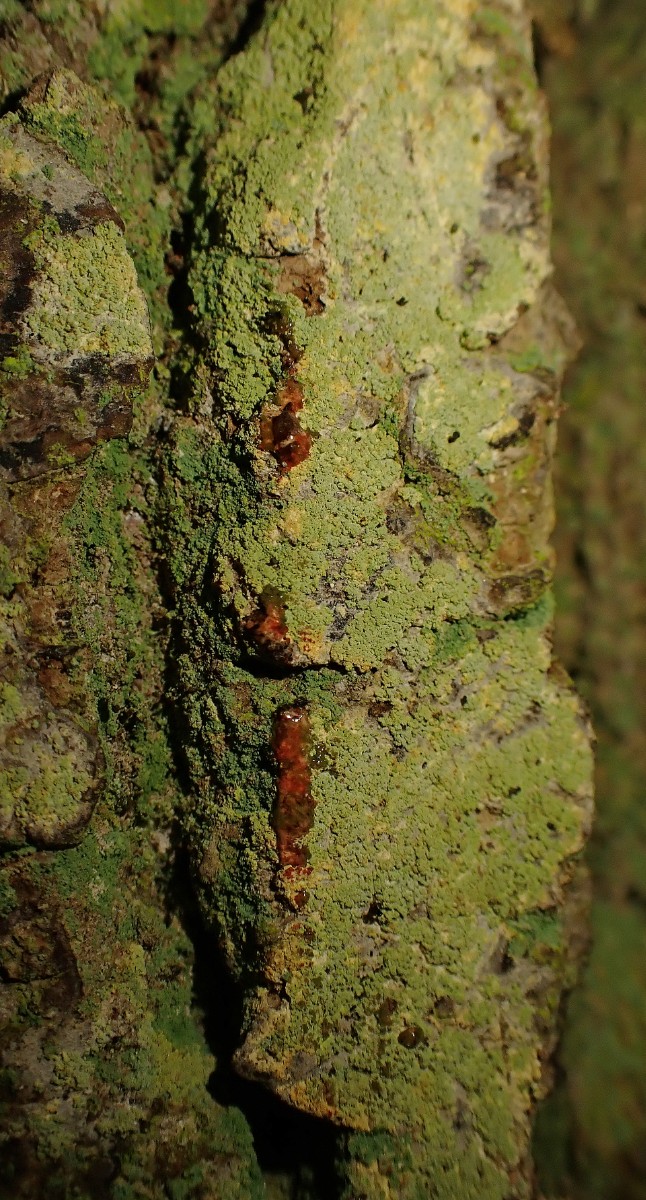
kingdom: Fungi
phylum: Ascomycota
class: Coniocybomycetes
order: Coniocybales
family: Coniocybaceae
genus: Chaenotheca
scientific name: Chaenotheca ferruginea
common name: rustbrun knappenålslav
